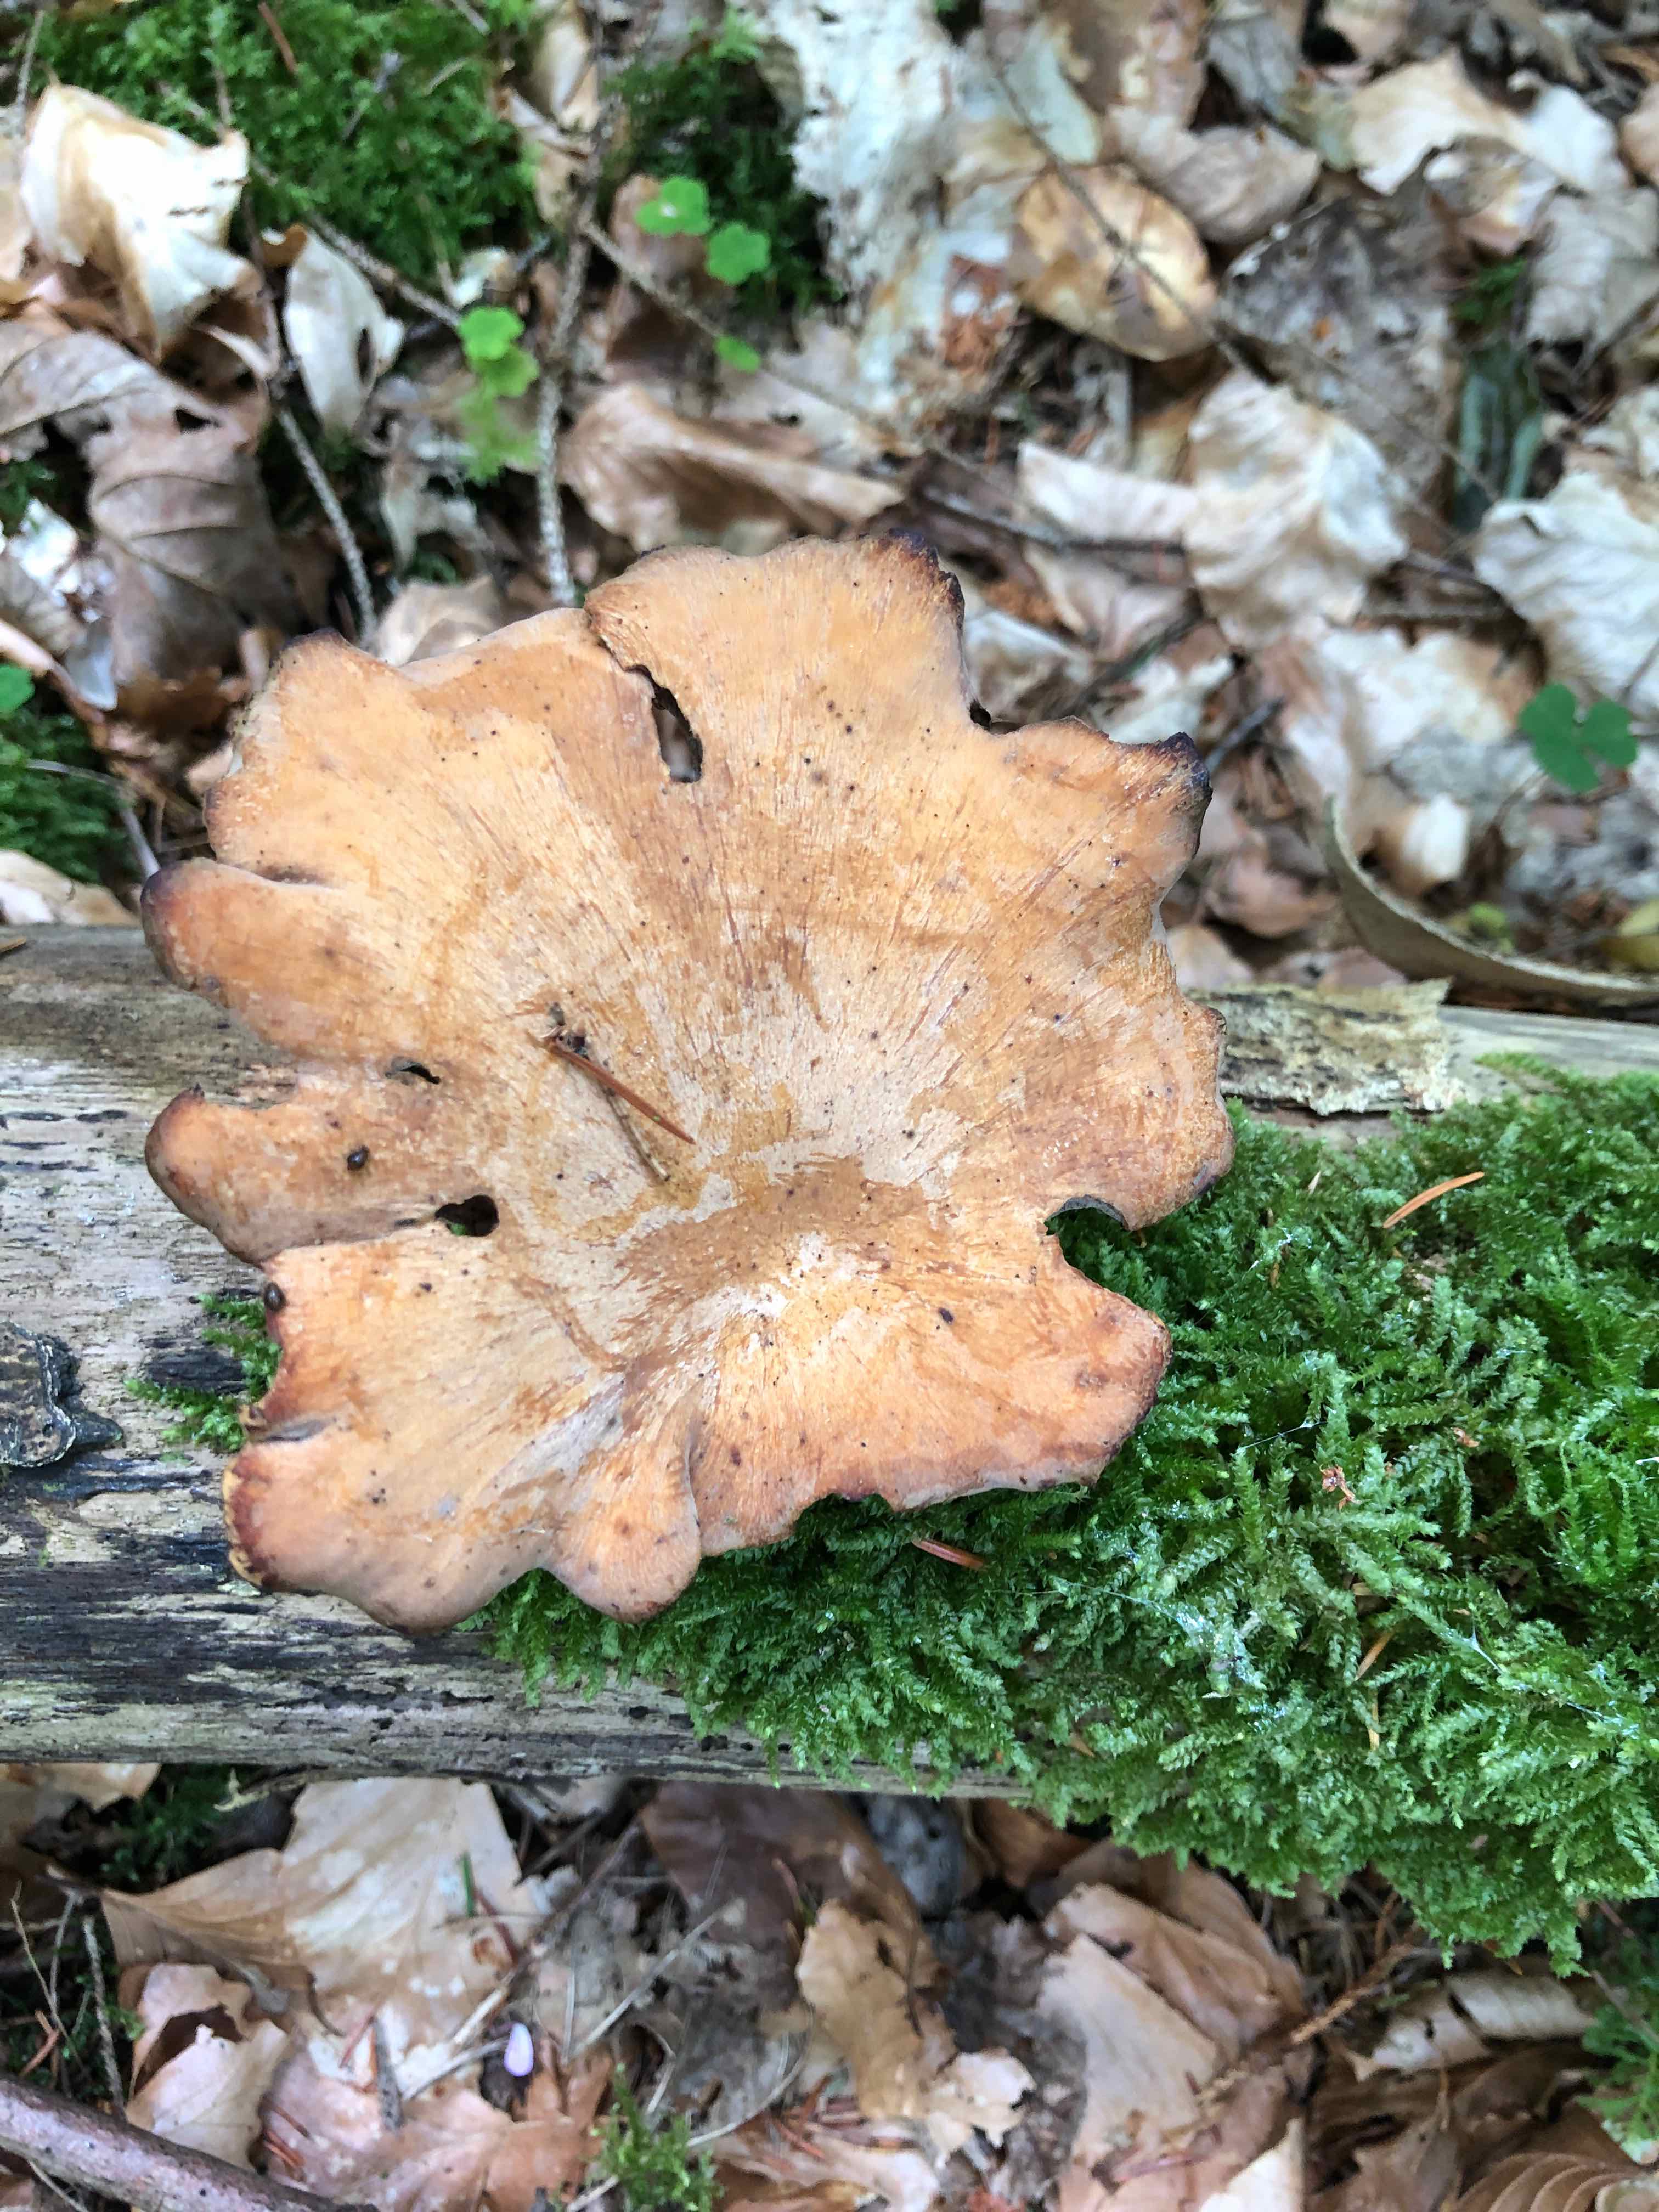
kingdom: Fungi
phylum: Basidiomycota
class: Agaricomycetes
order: Polyporales
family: Polyporaceae
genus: Cerioporus
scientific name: Cerioporus varius
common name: foranderlig stilkporesvamp
